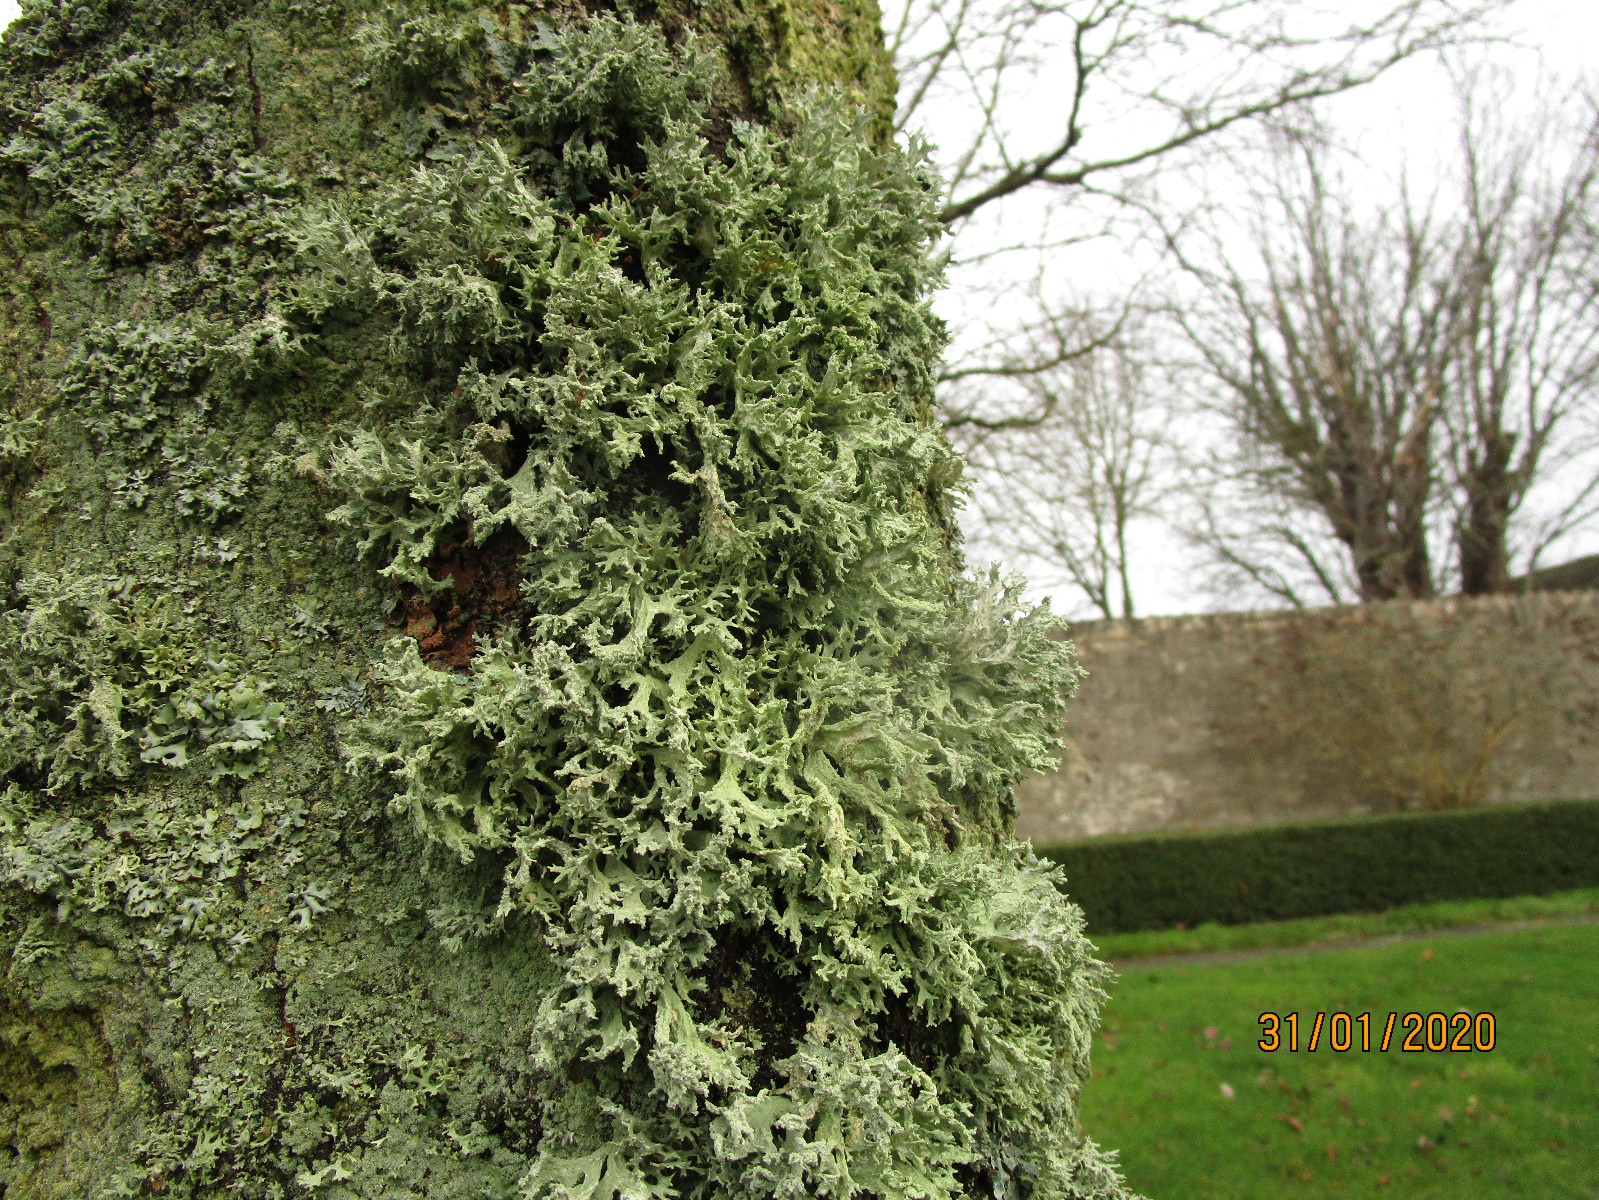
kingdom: Fungi
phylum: Ascomycota
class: Lecanoromycetes
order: Lecanorales
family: Parmeliaceae
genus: Evernia
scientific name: Evernia prunastri
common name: almindelig slåenlav
